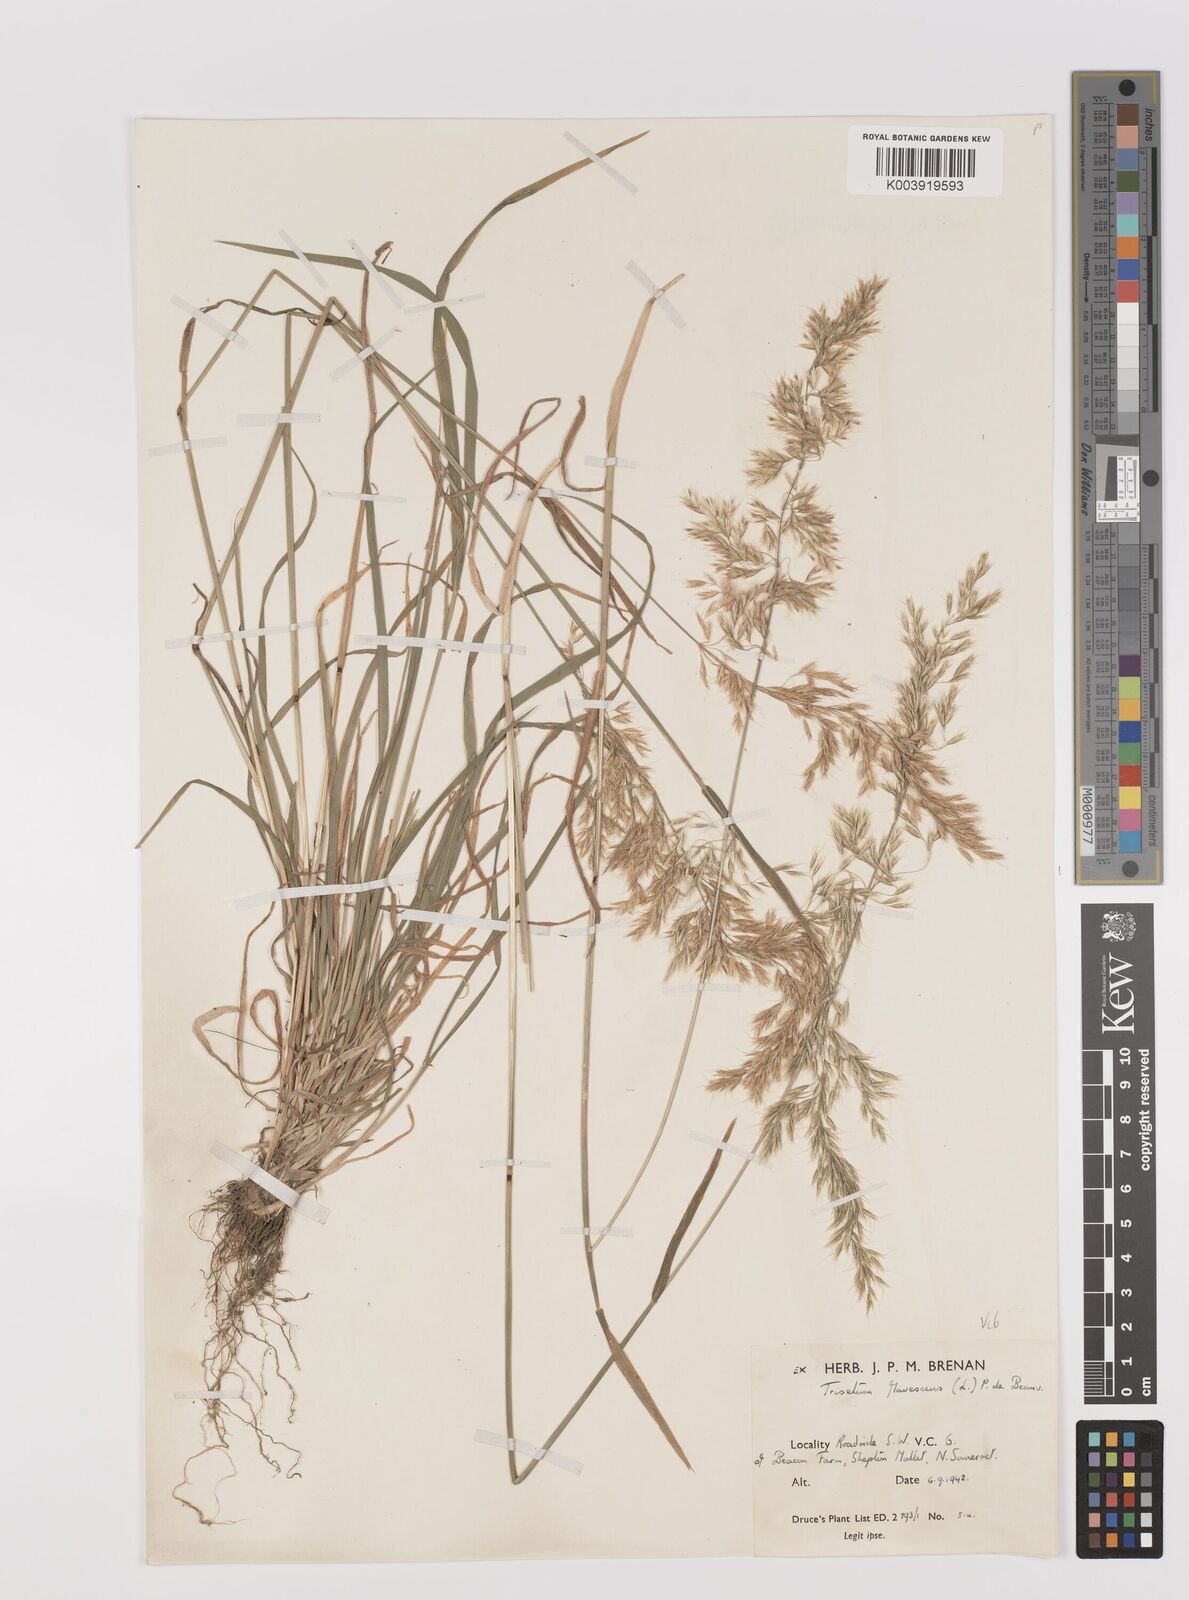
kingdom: Plantae
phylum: Tracheophyta
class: Liliopsida
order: Poales
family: Poaceae
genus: Trisetum
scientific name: Trisetum flavescens
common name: Yellow oat-grass
